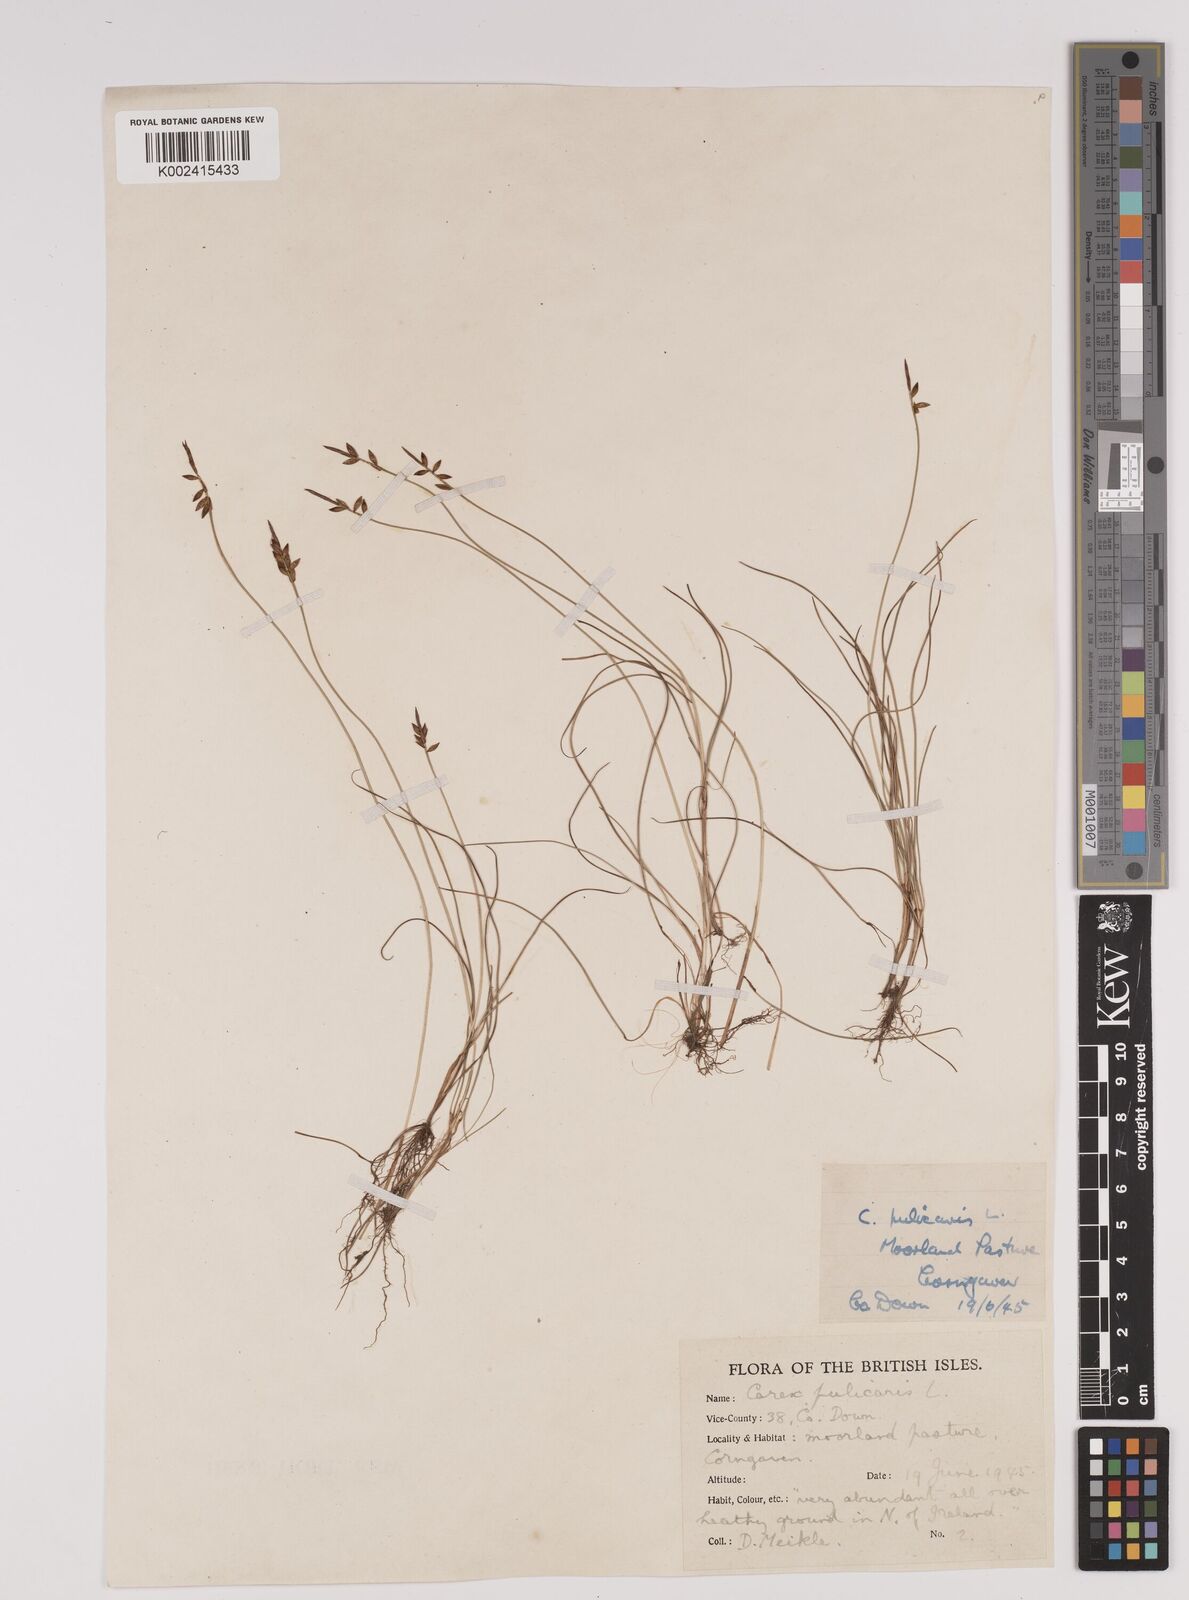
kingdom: Plantae
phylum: Tracheophyta
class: Liliopsida
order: Poales
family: Cyperaceae
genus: Carex
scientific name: Carex pulicaris
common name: Flea sedge
